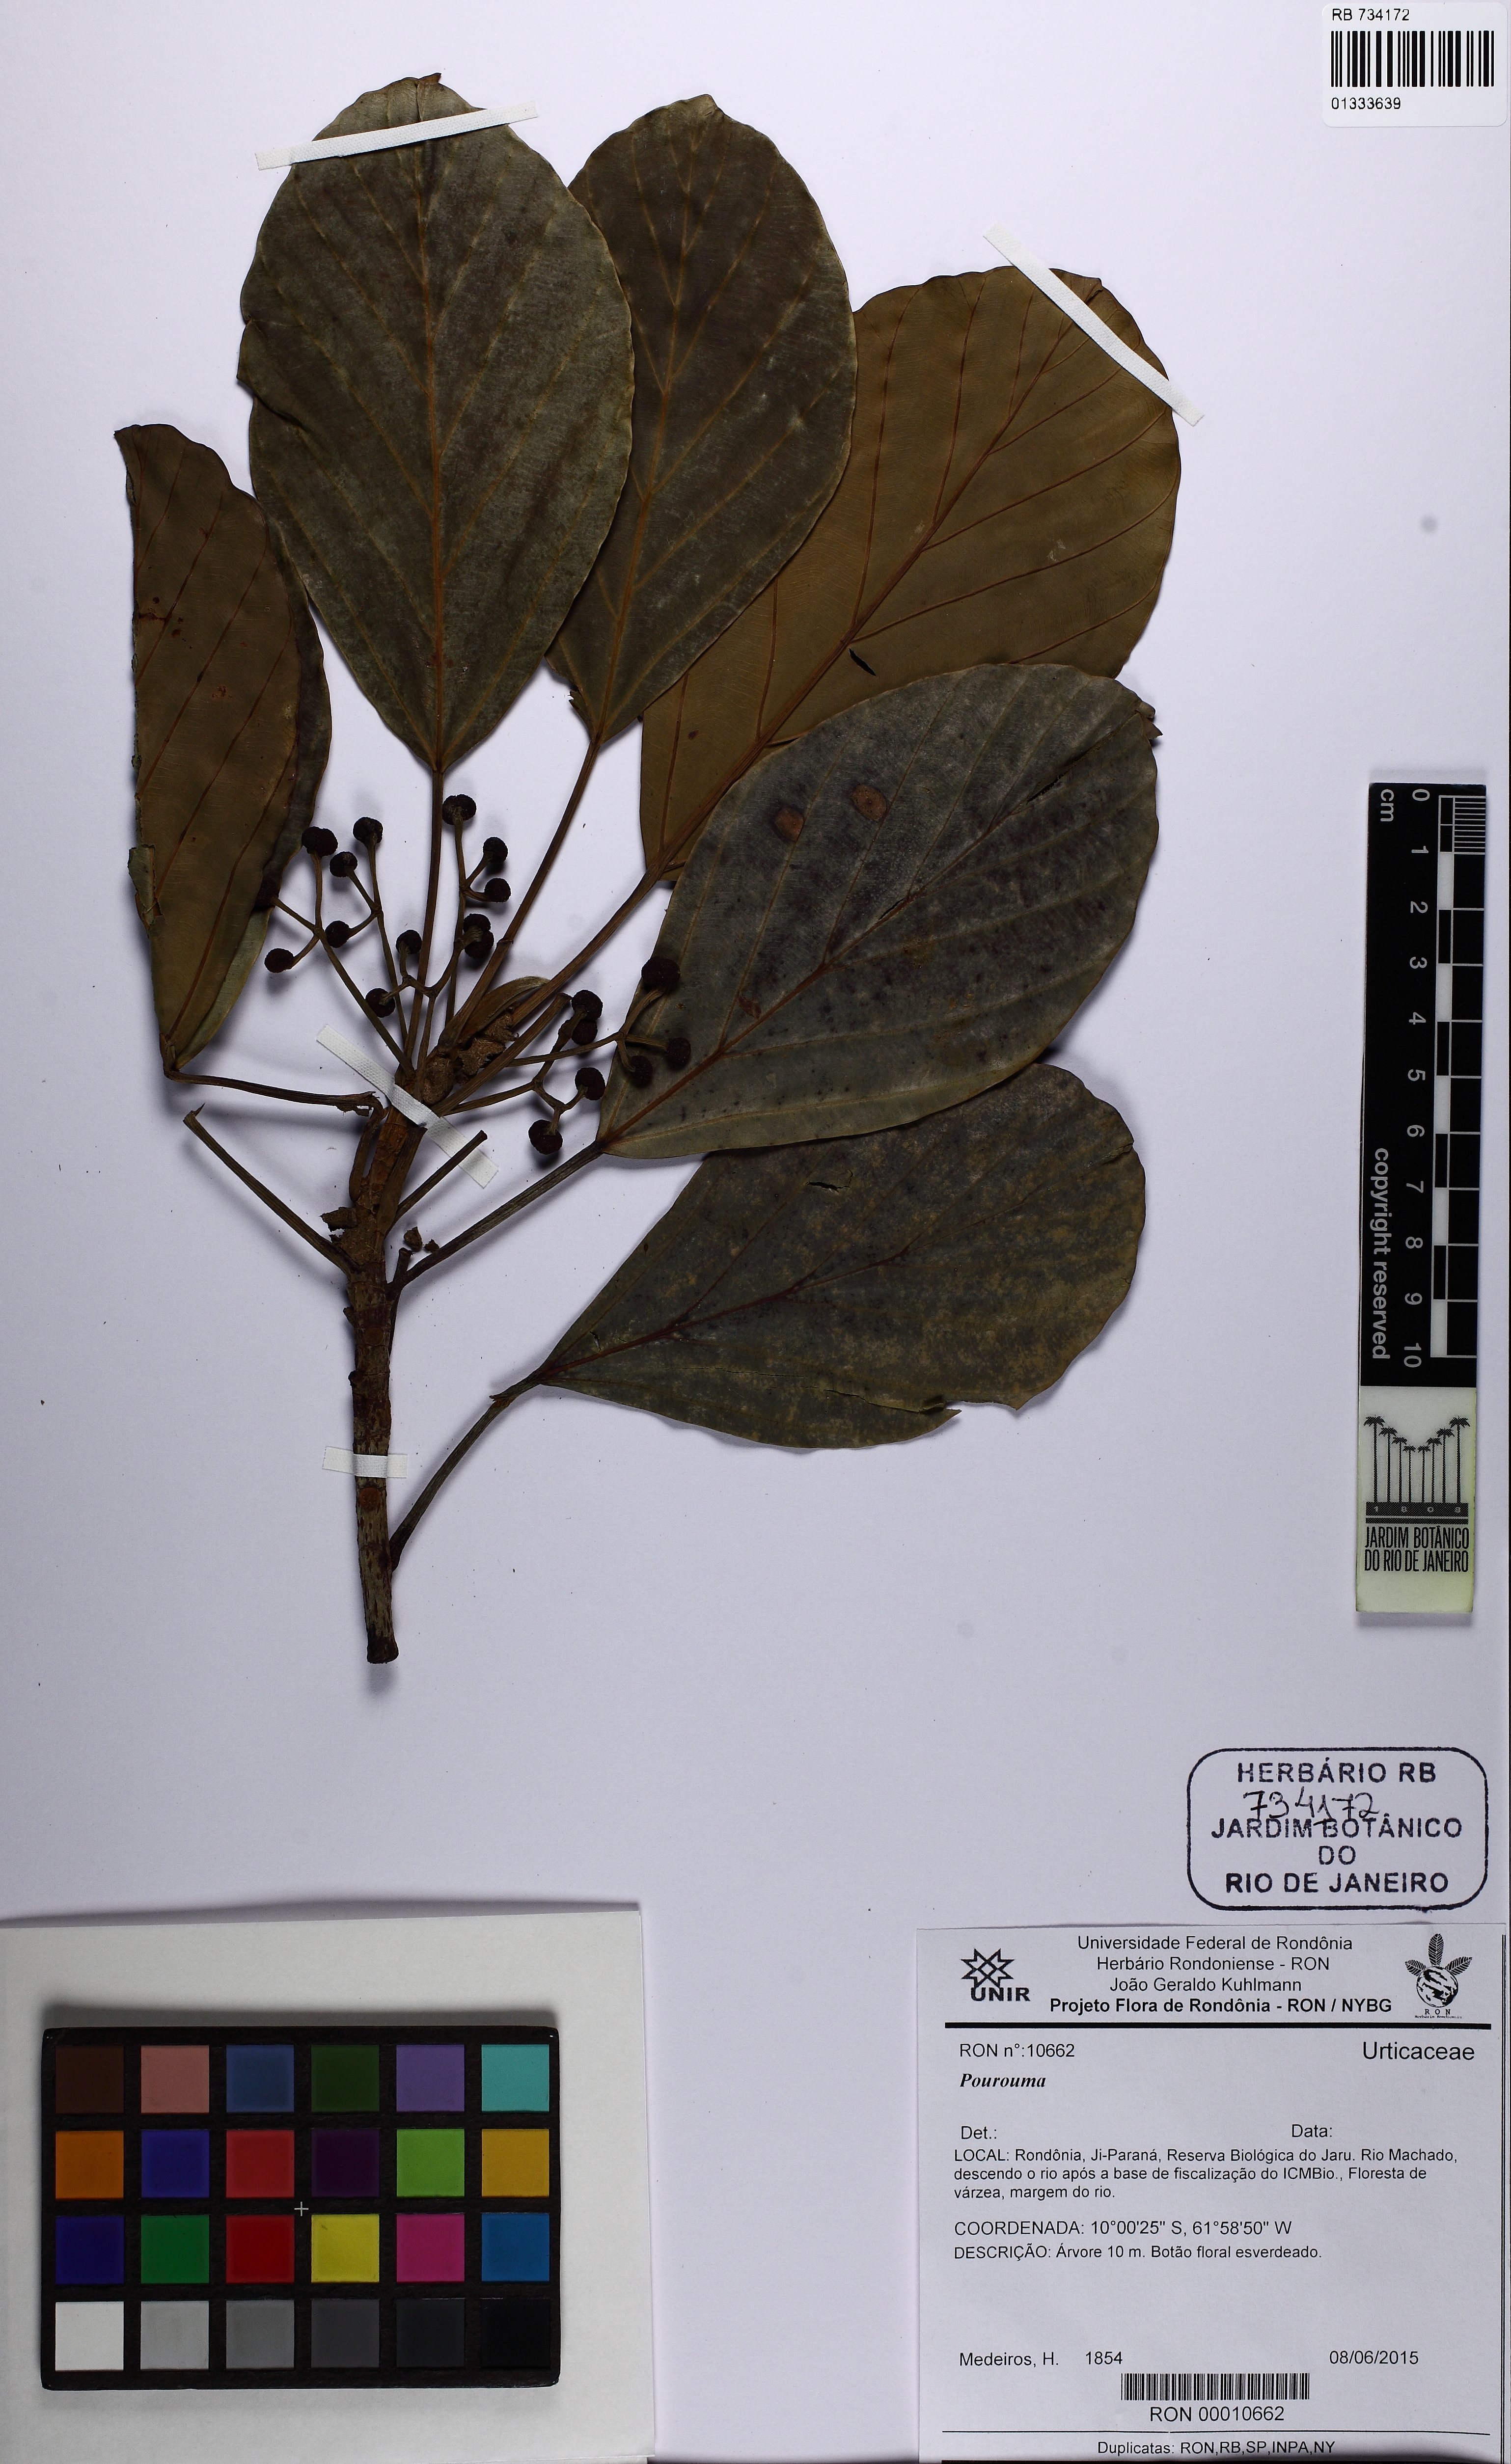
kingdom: Plantae
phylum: Tracheophyta
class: Magnoliopsida
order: Rosales
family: Urticaceae
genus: Pourouma
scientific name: Pourouma
